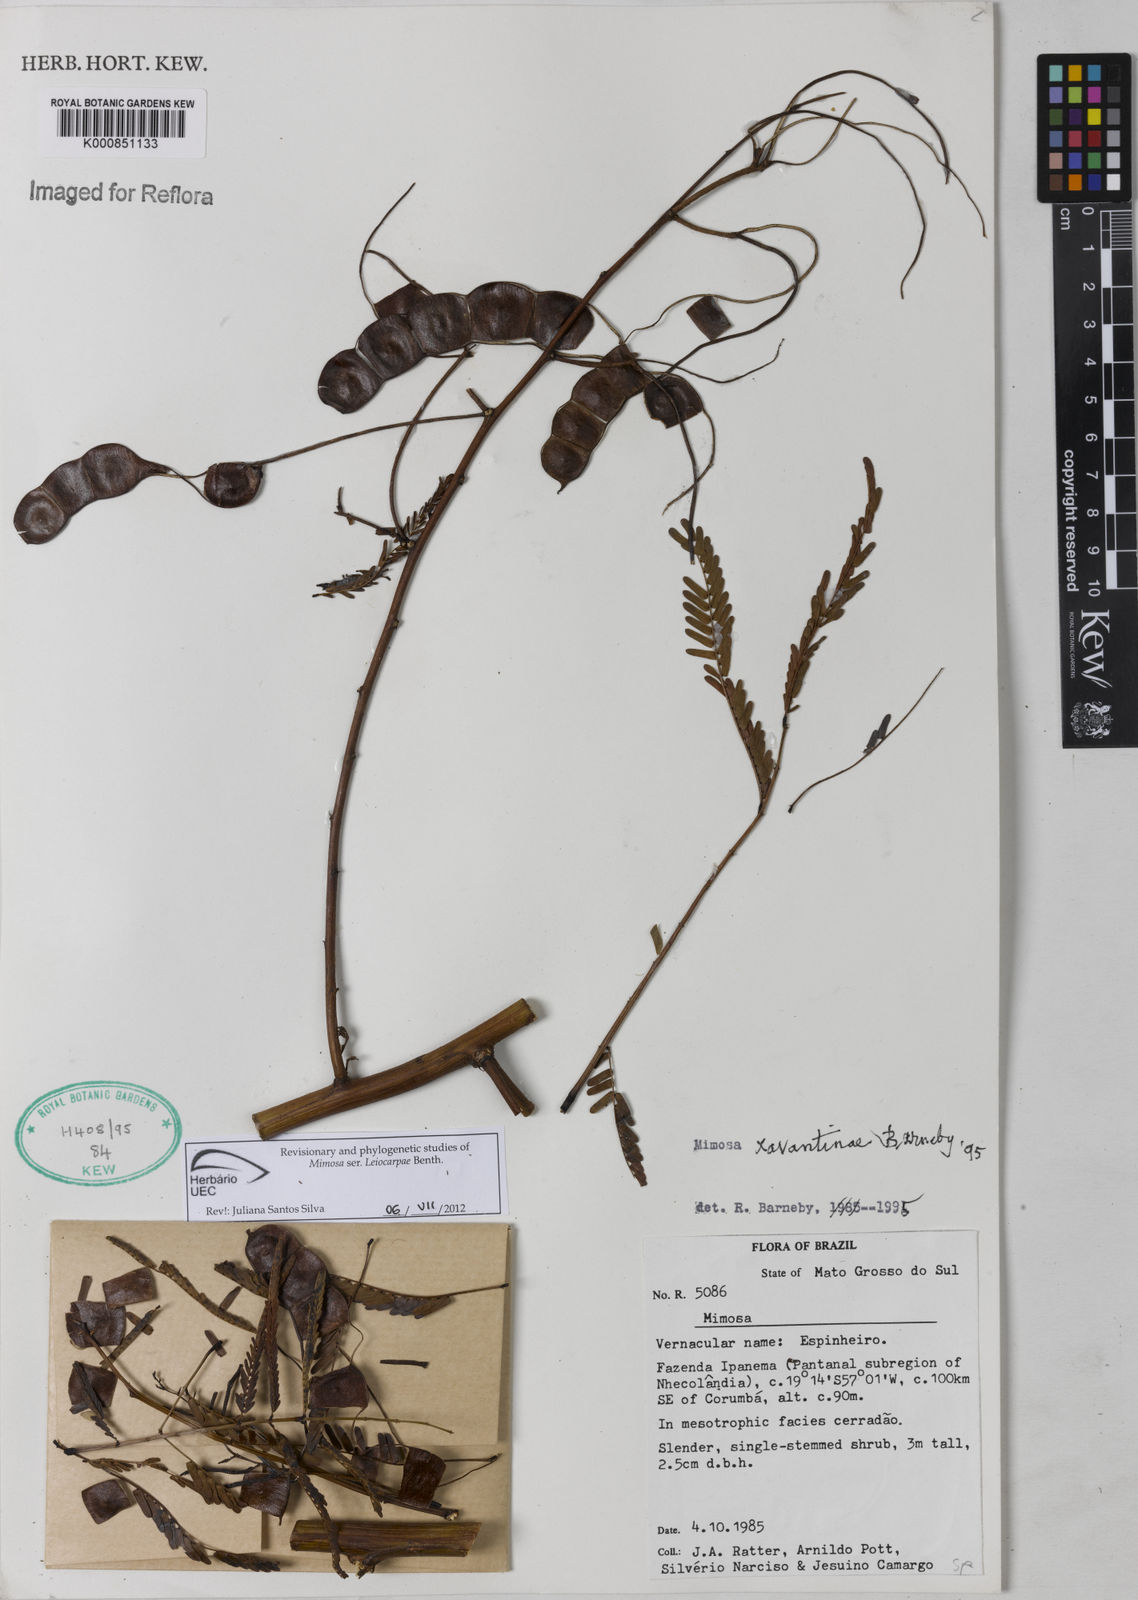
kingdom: Plantae
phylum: Tracheophyta
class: Magnoliopsida
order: Fabales
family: Fabaceae
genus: Mimosa
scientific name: Mimosa apodocarpa
